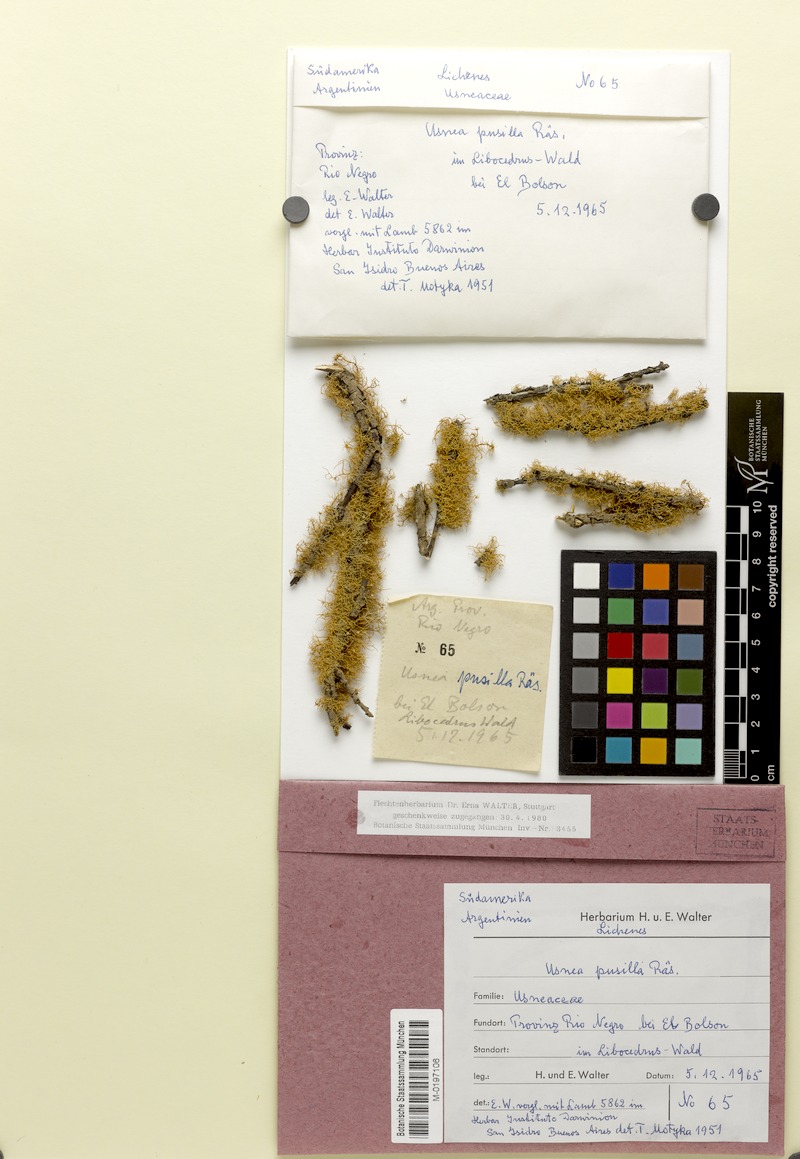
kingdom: Fungi
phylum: Ascomycota
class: Lecanoromycetes
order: Lecanorales
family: Parmeliaceae
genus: Usnea
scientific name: Usnea
